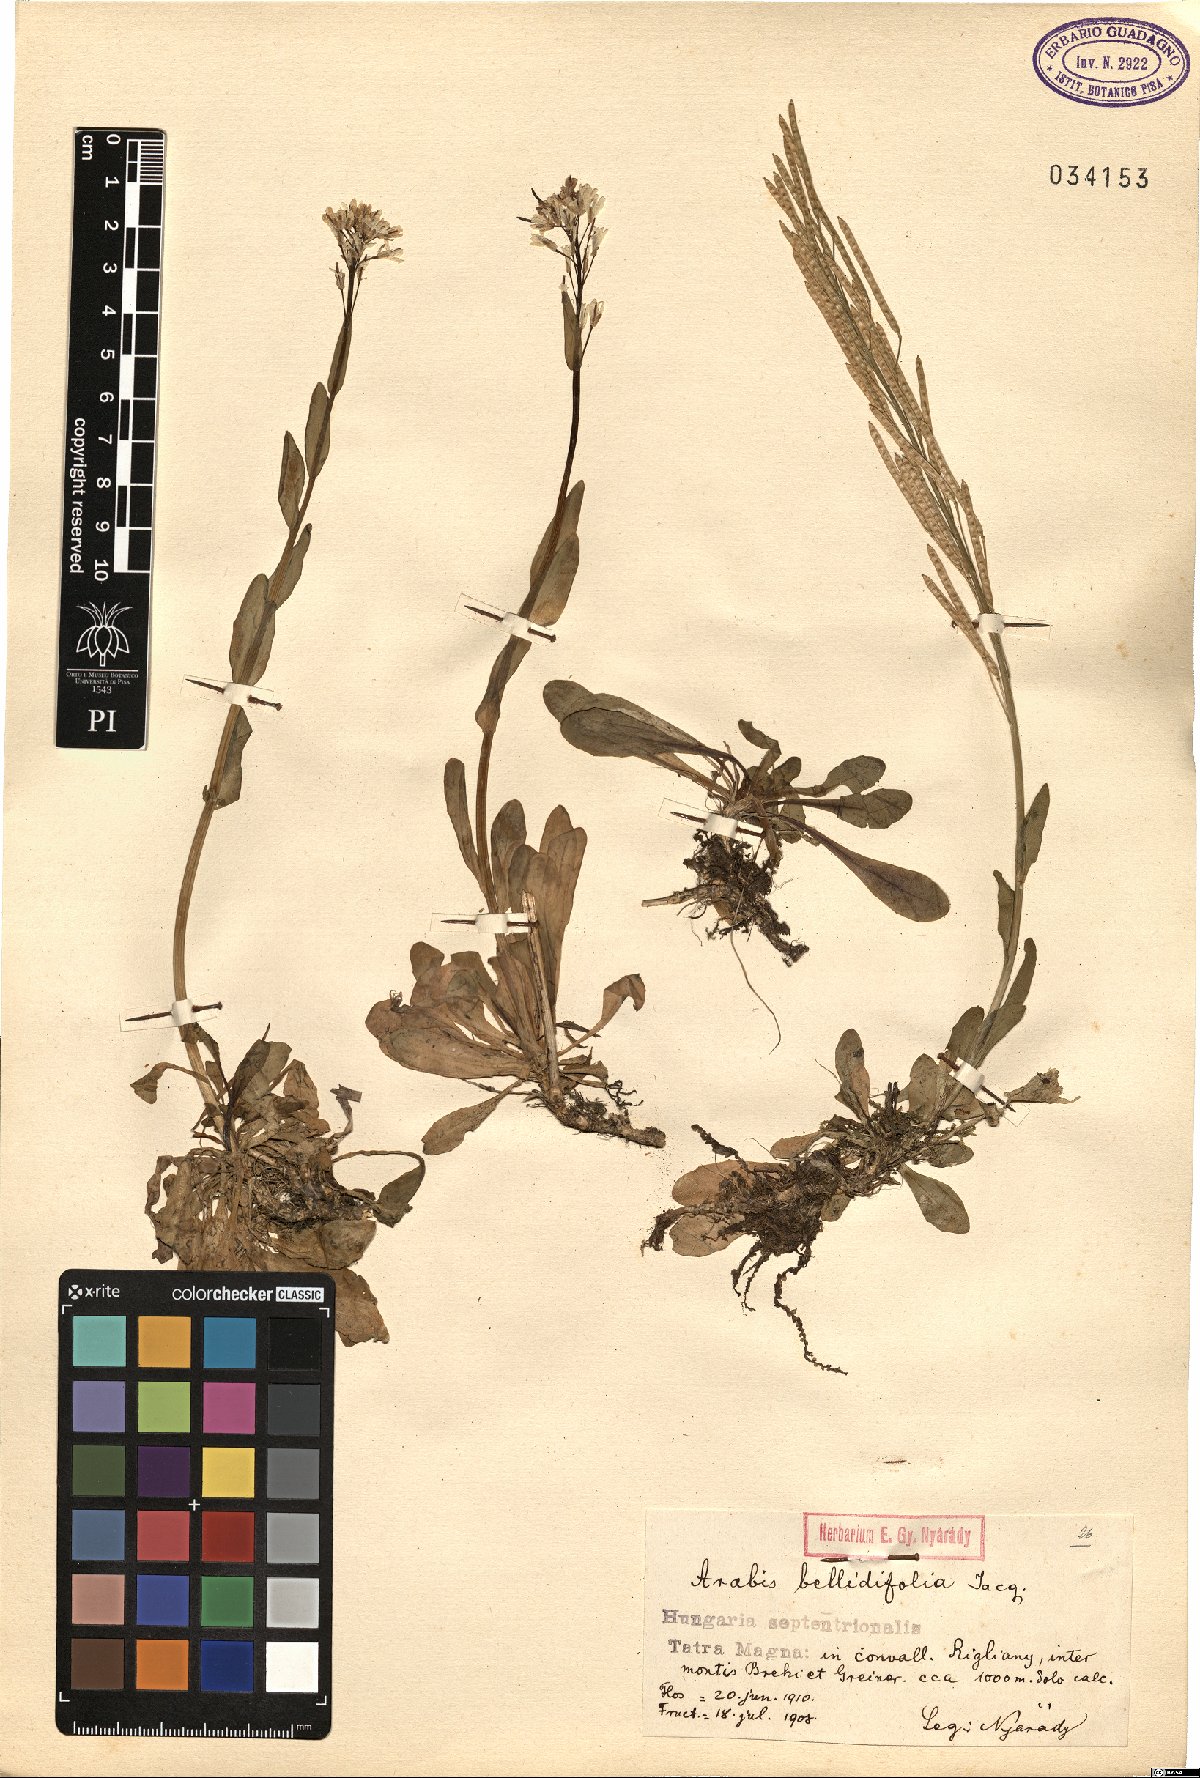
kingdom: Plantae
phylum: Tracheophyta
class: Magnoliopsida
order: Brassicales
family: Brassicaceae
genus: Arabis
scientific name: Arabis pumila
